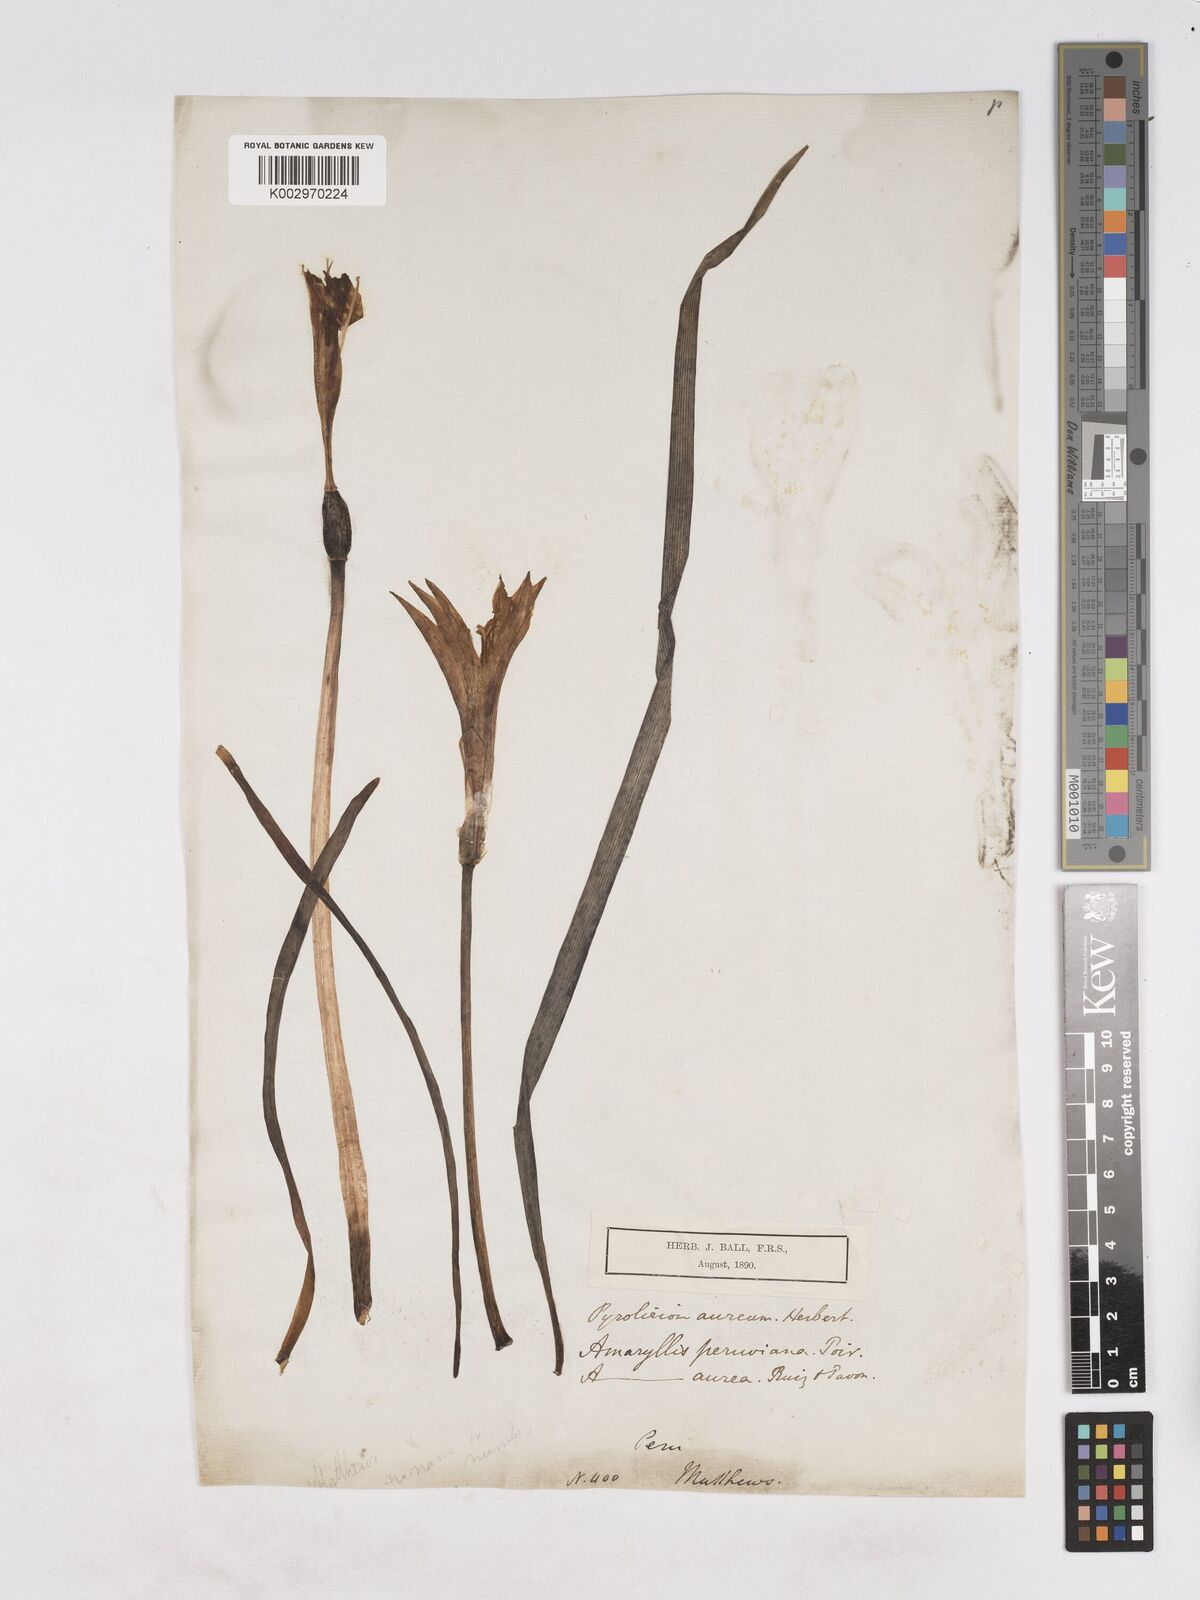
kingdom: Plantae
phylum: Tracheophyta
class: Liliopsida
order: Asparagales
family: Amaryllidaceae
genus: Pyrolirion
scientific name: Pyrolirion tubiflorum
